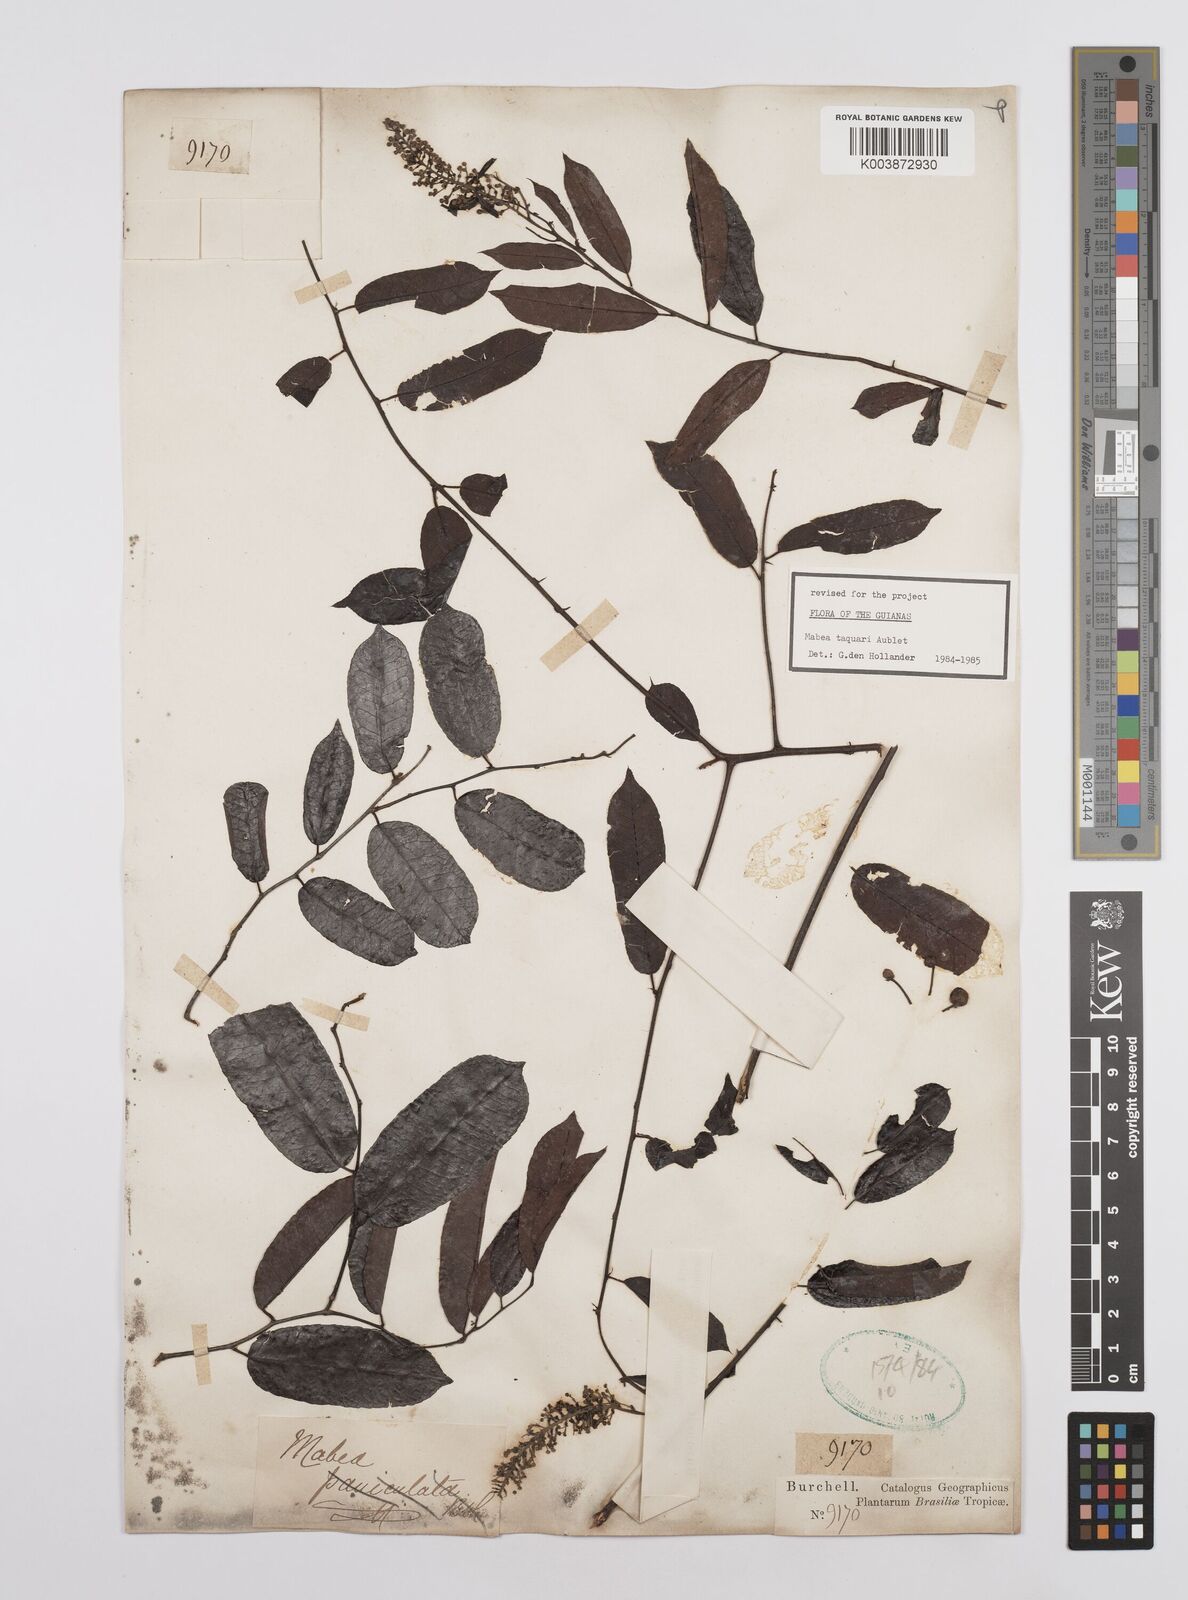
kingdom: Plantae
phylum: Tracheophyta
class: Magnoliopsida
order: Malpighiales
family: Euphorbiaceae
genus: Mabea
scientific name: Mabea taquari
